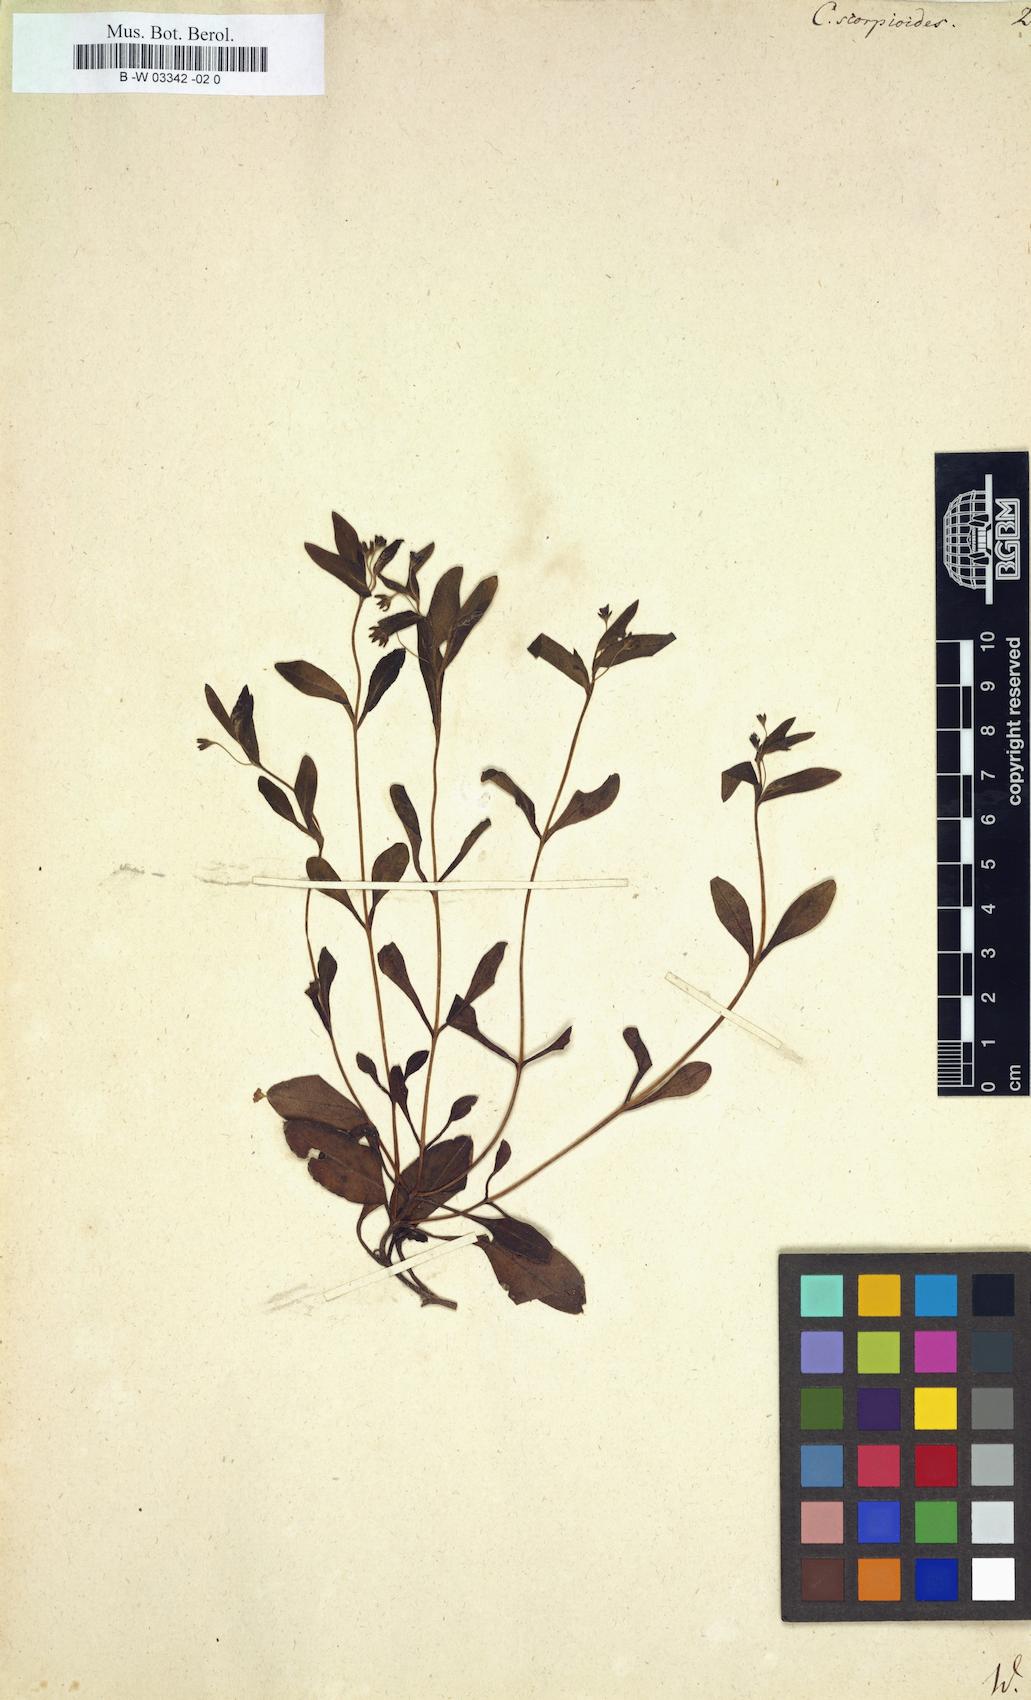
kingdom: Plantae
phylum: Tracheophyta
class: Magnoliopsida
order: Boraginales
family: Boraginaceae
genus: Memoremea
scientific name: Memoremea scorpioides
